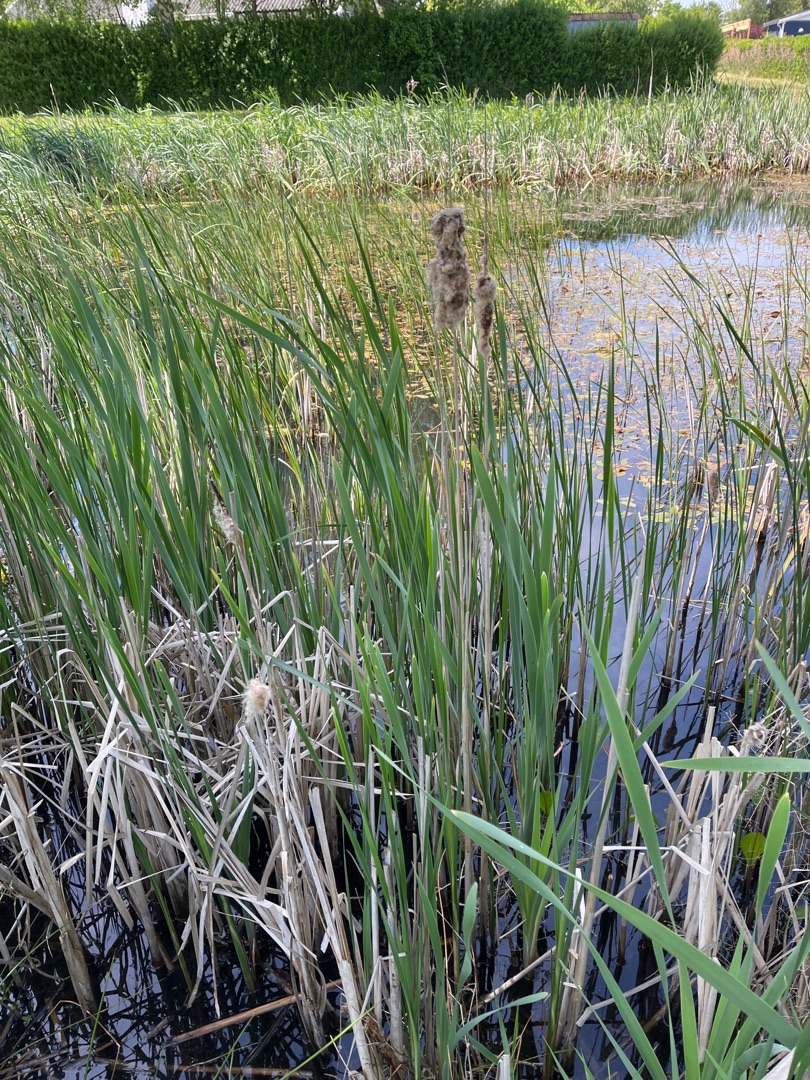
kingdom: Plantae
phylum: Tracheophyta
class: Liliopsida
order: Poales
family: Typhaceae
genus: Typha
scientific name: Typha latifolia
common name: Bredbladet dunhammer
